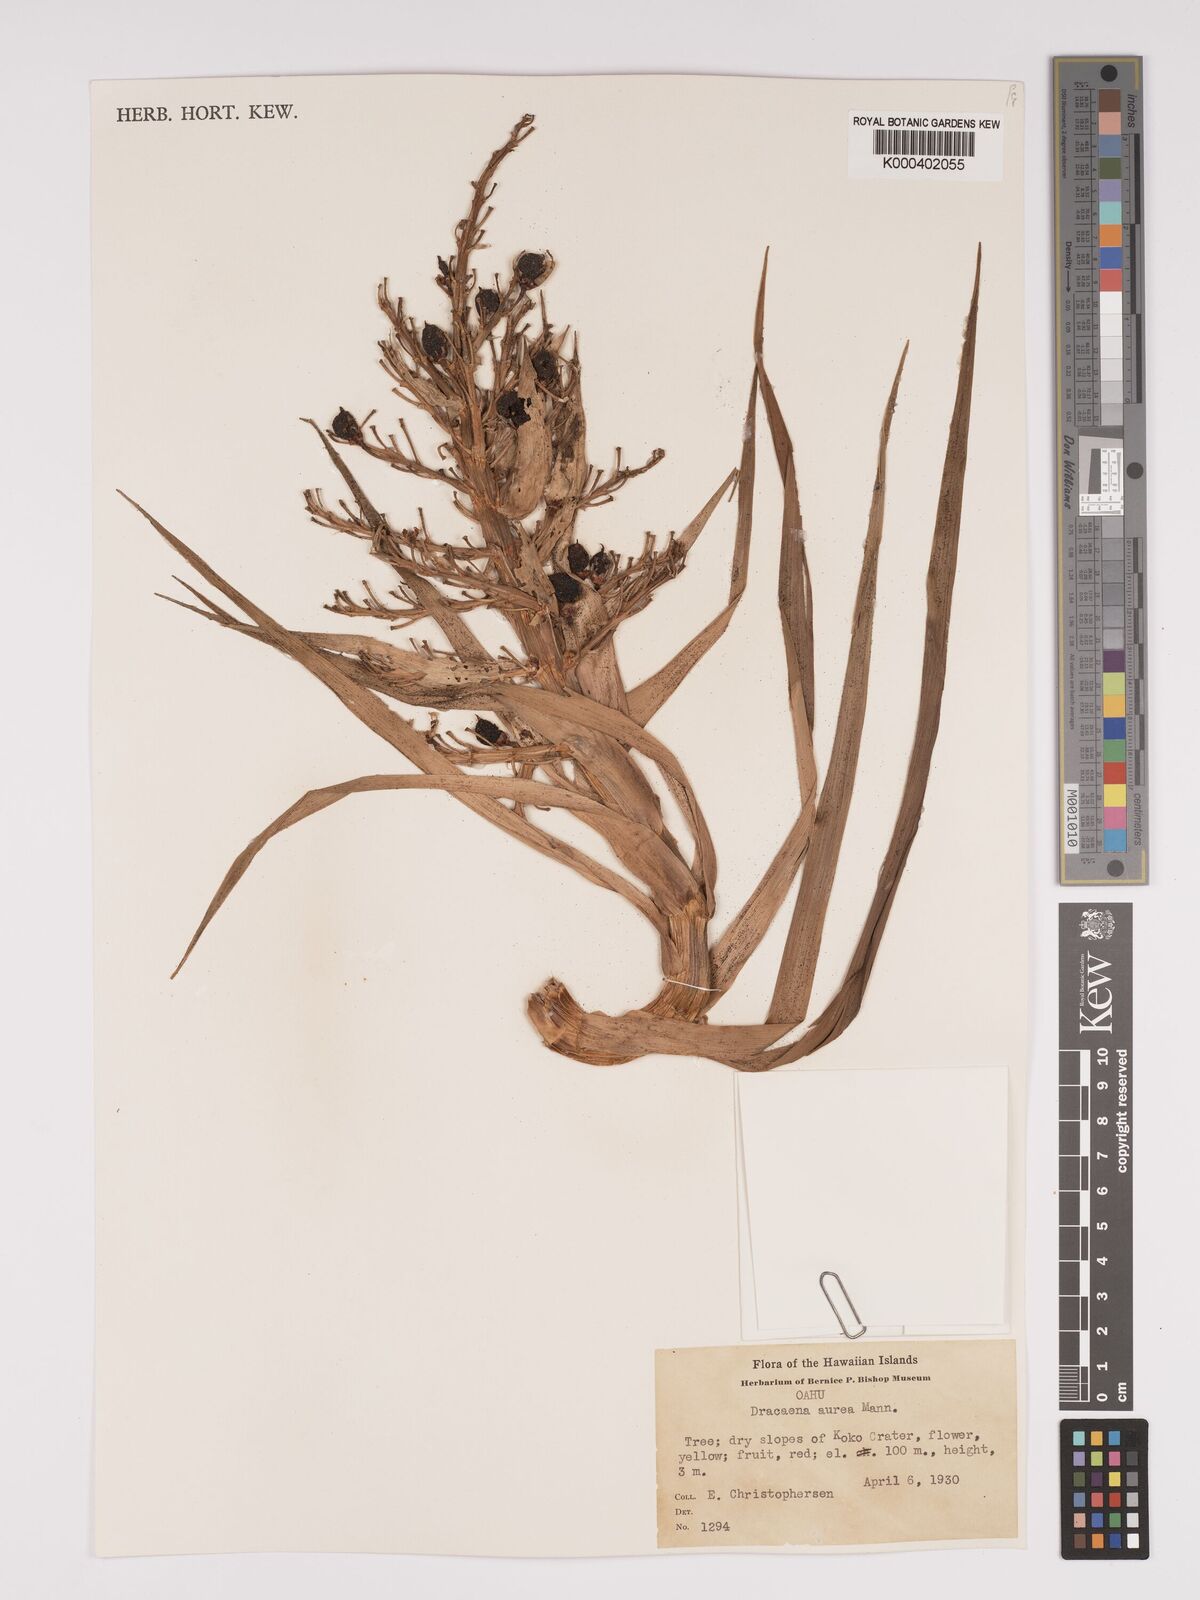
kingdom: Plantae
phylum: Tracheophyta
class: Liliopsida
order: Asparagales
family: Asparagaceae
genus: Dracaena
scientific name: Dracaena aurea
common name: Golden dracaena
